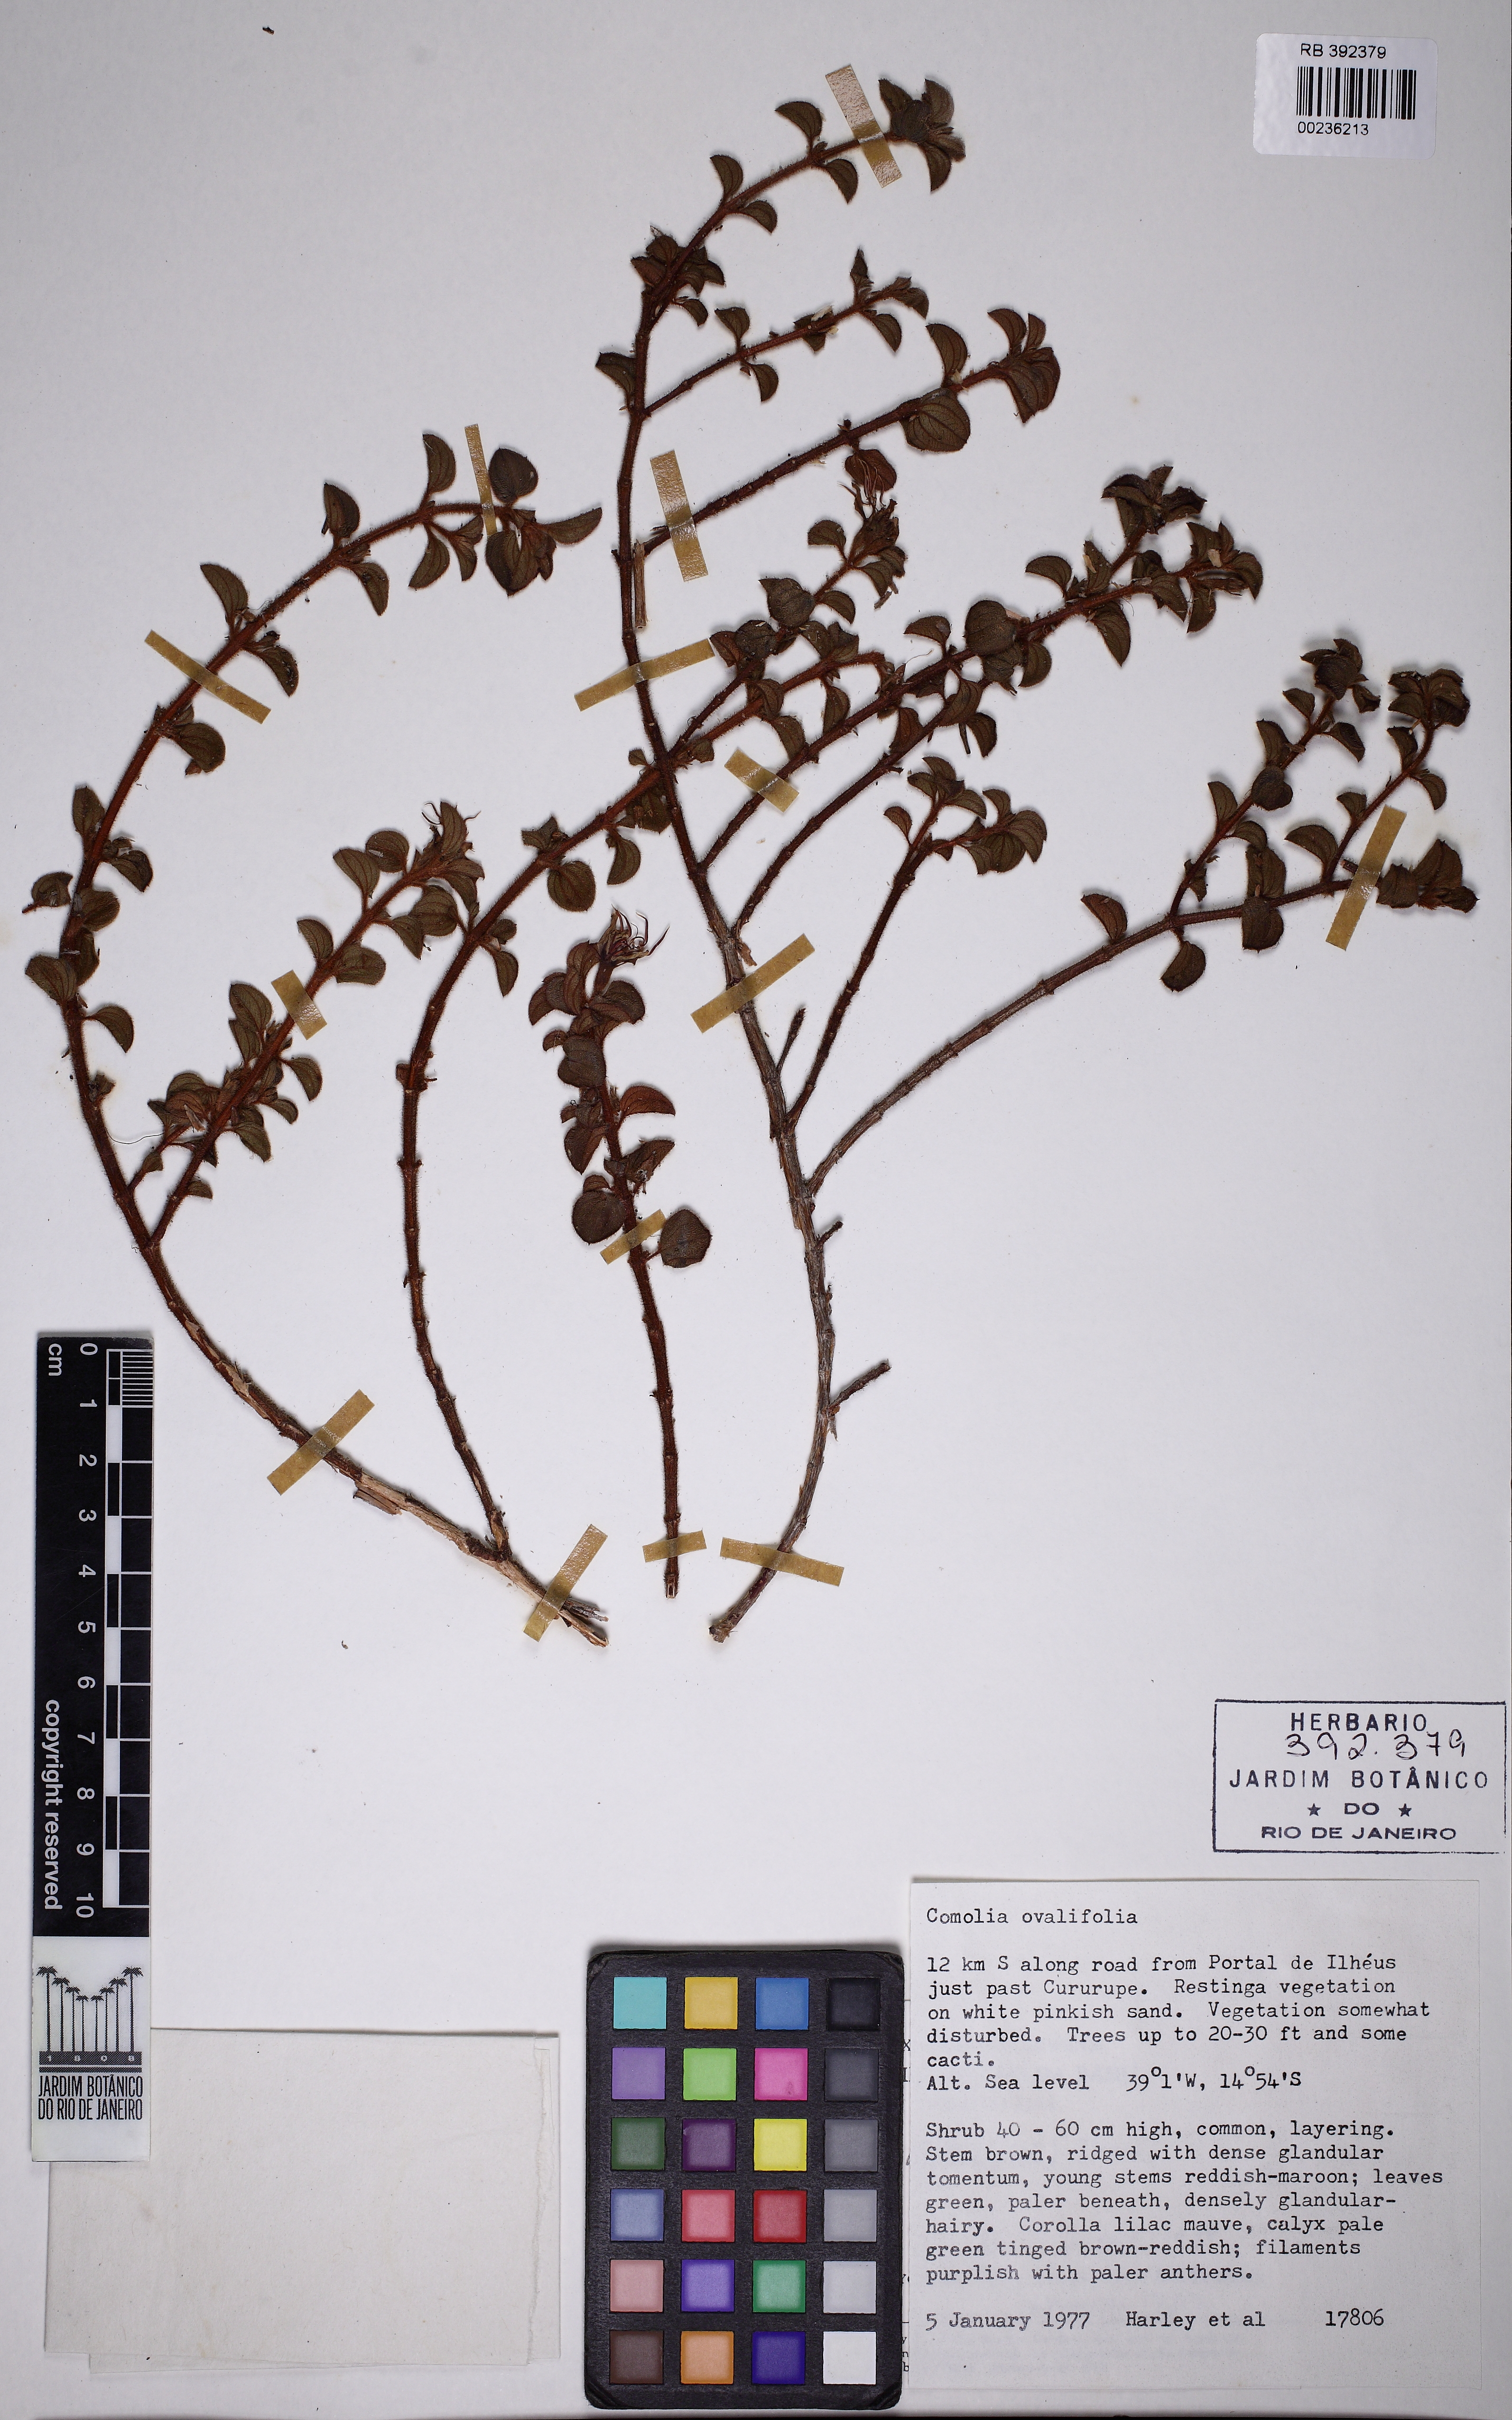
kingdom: Plantae
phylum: Tracheophyta
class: Magnoliopsida
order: Myrtales
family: Melastomataceae
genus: Comolia
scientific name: Comolia ovalifolia
